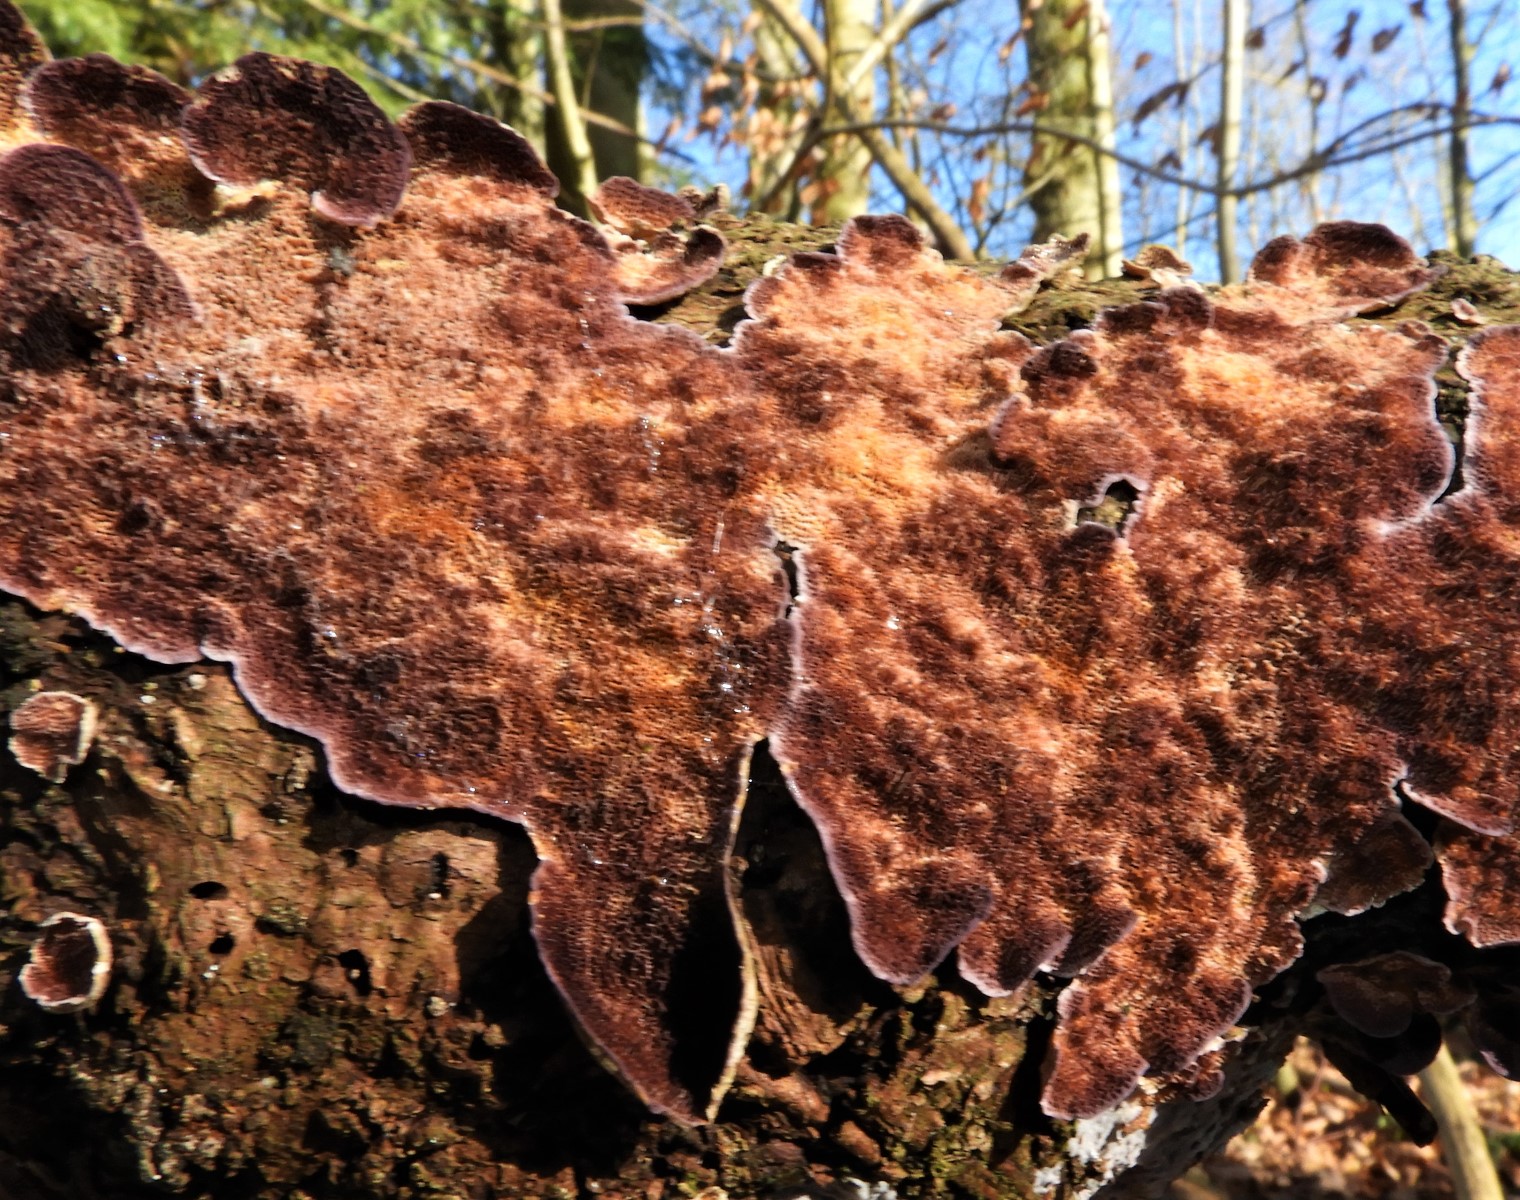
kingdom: Fungi
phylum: Basidiomycota
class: Agaricomycetes
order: Hymenochaetales
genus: Trichaptum
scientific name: Trichaptum abietinum
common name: almindelig violporesvamp
